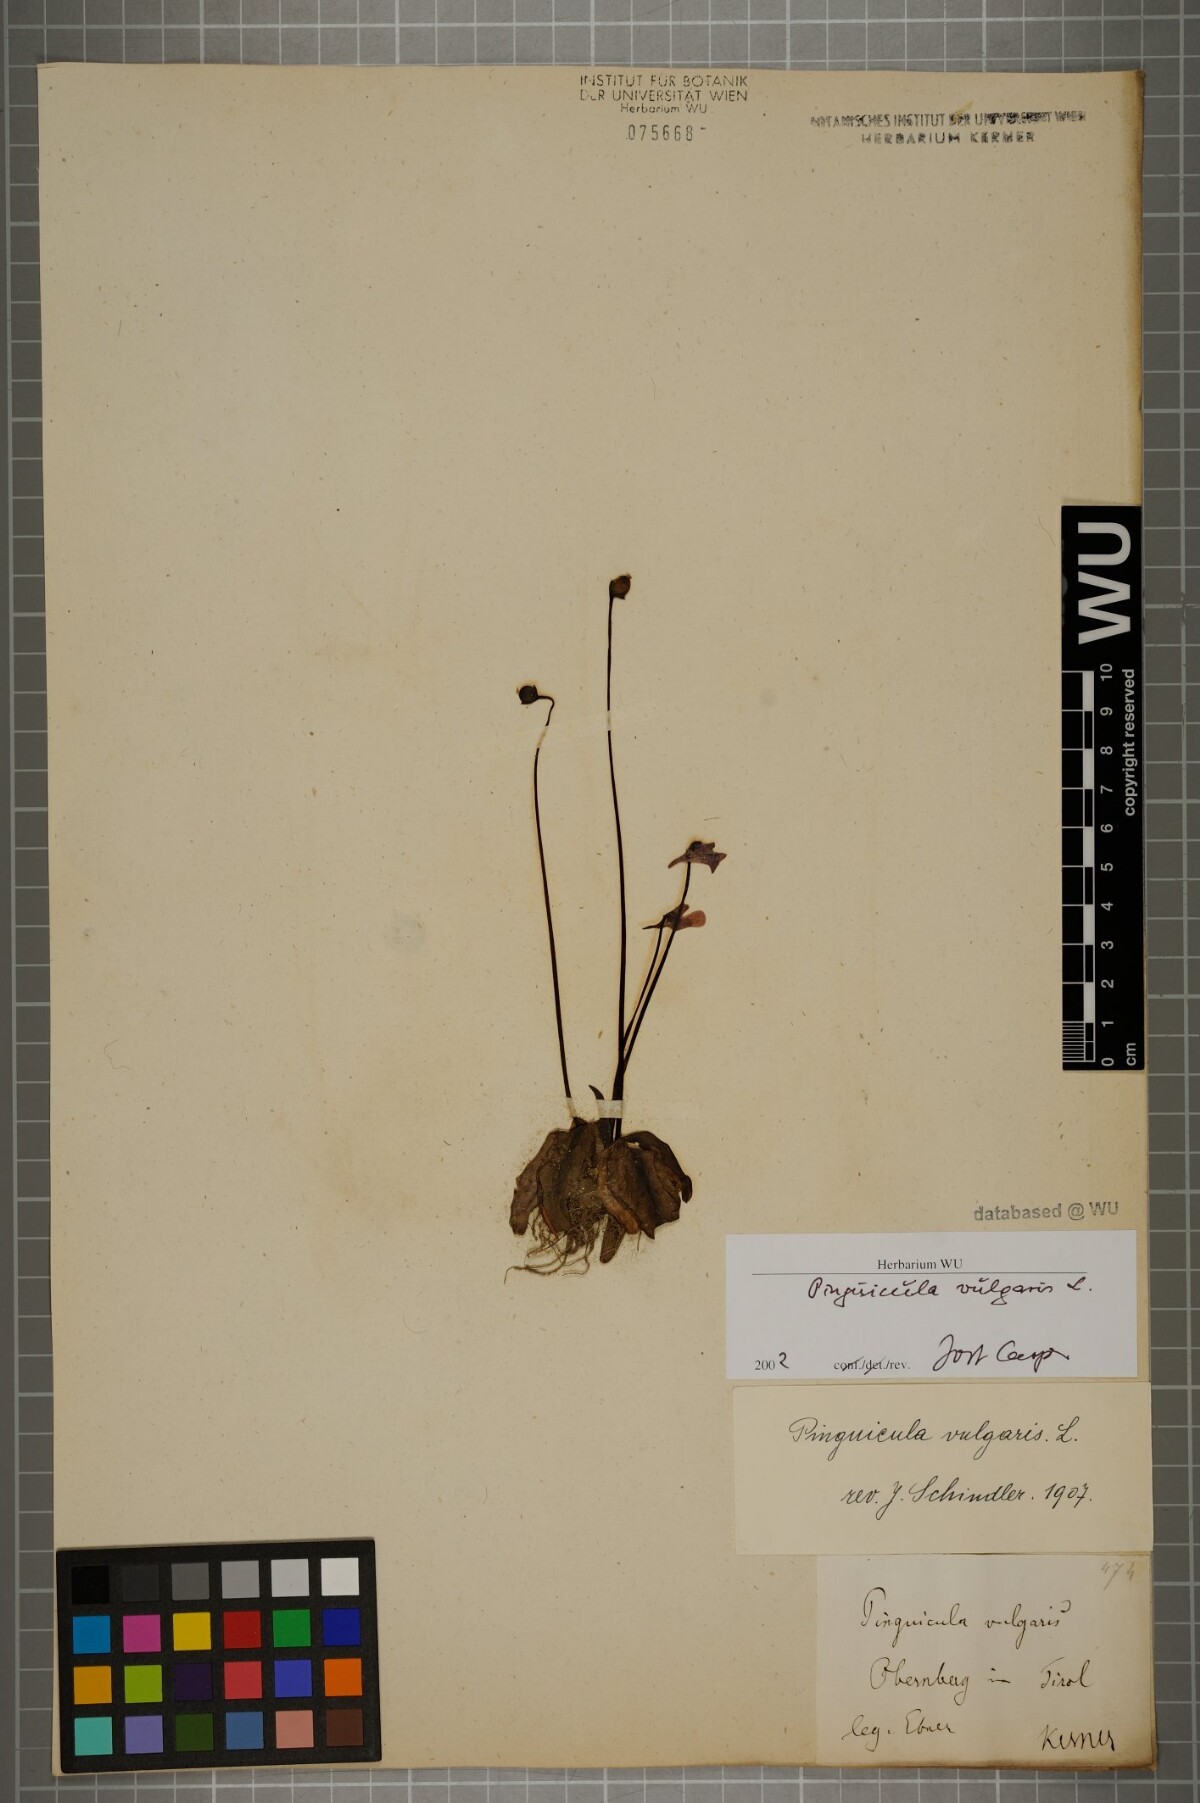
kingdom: Plantae
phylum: Tracheophyta
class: Magnoliopsida
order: Lamiales
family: Lentibulariaceae
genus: Pinguicula
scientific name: Pinguicula vulgaris
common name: Common butterwort
